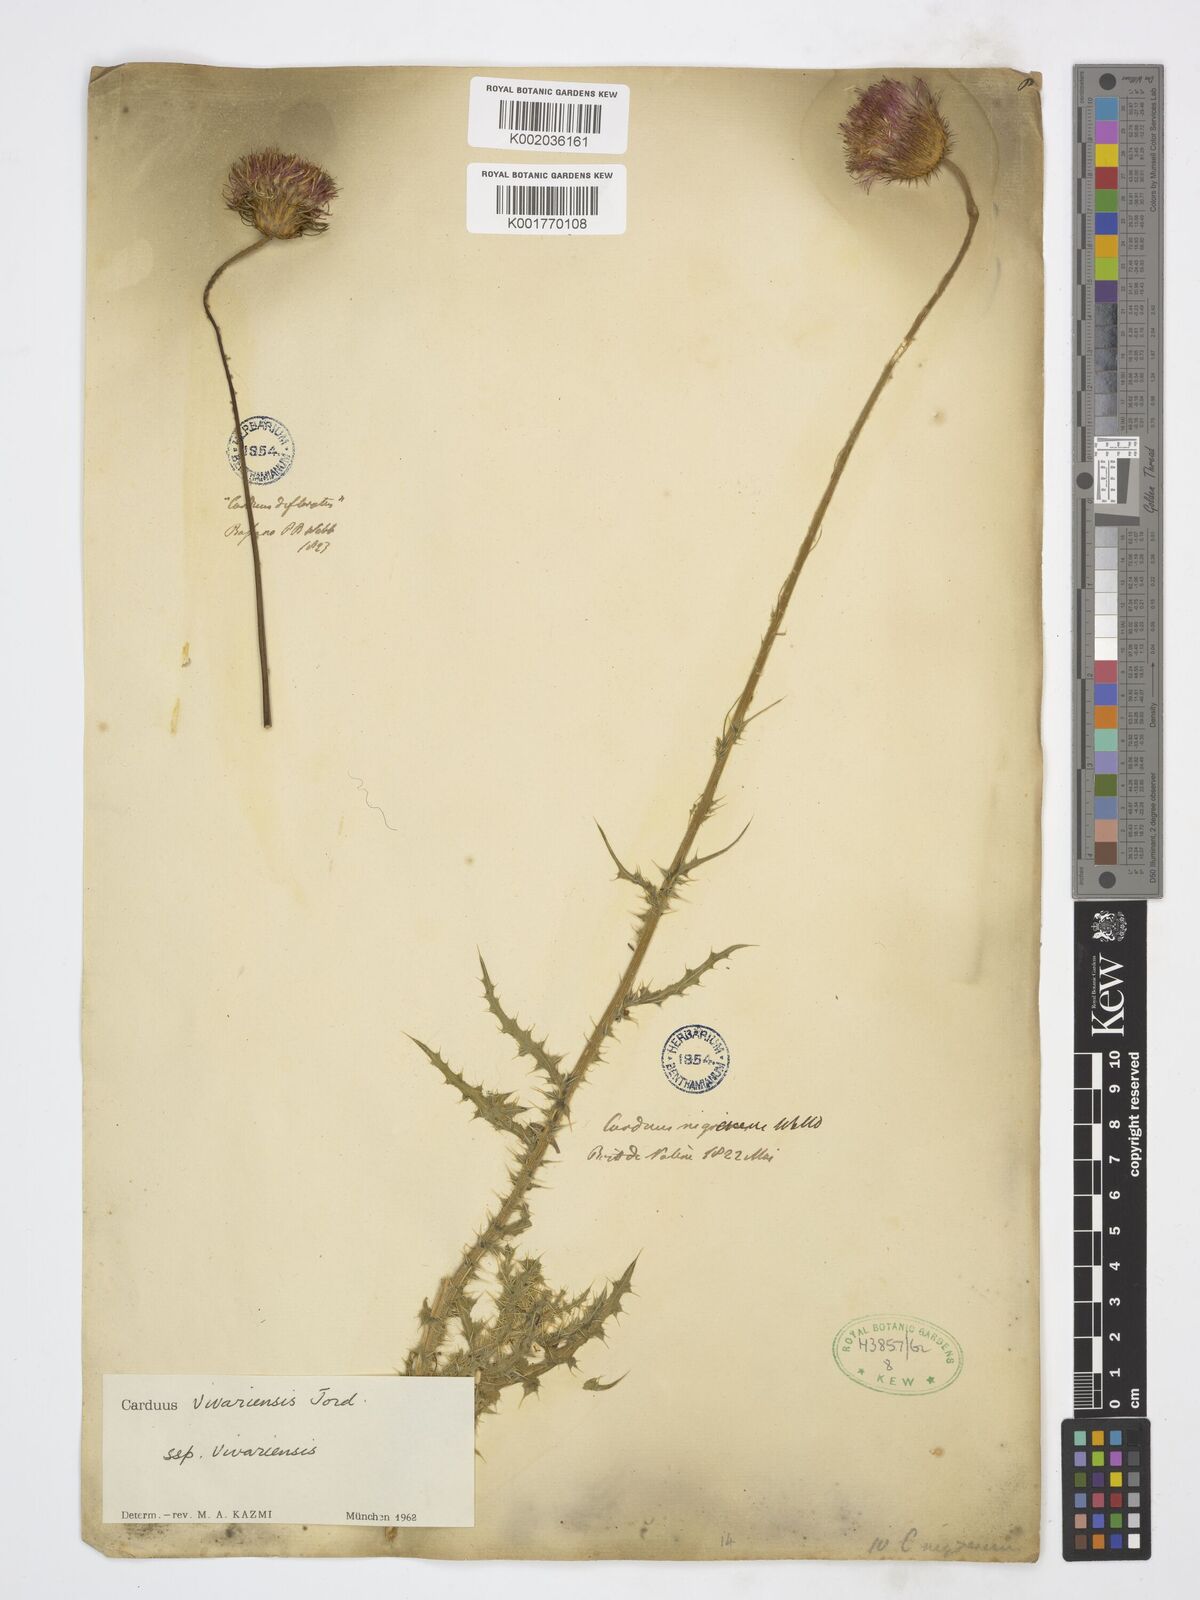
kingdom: Plantae
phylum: Tracheophyta
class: Magnoliopsida
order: Asterales
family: Asteraceae
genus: Carduus
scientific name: Carduus vivariensis
